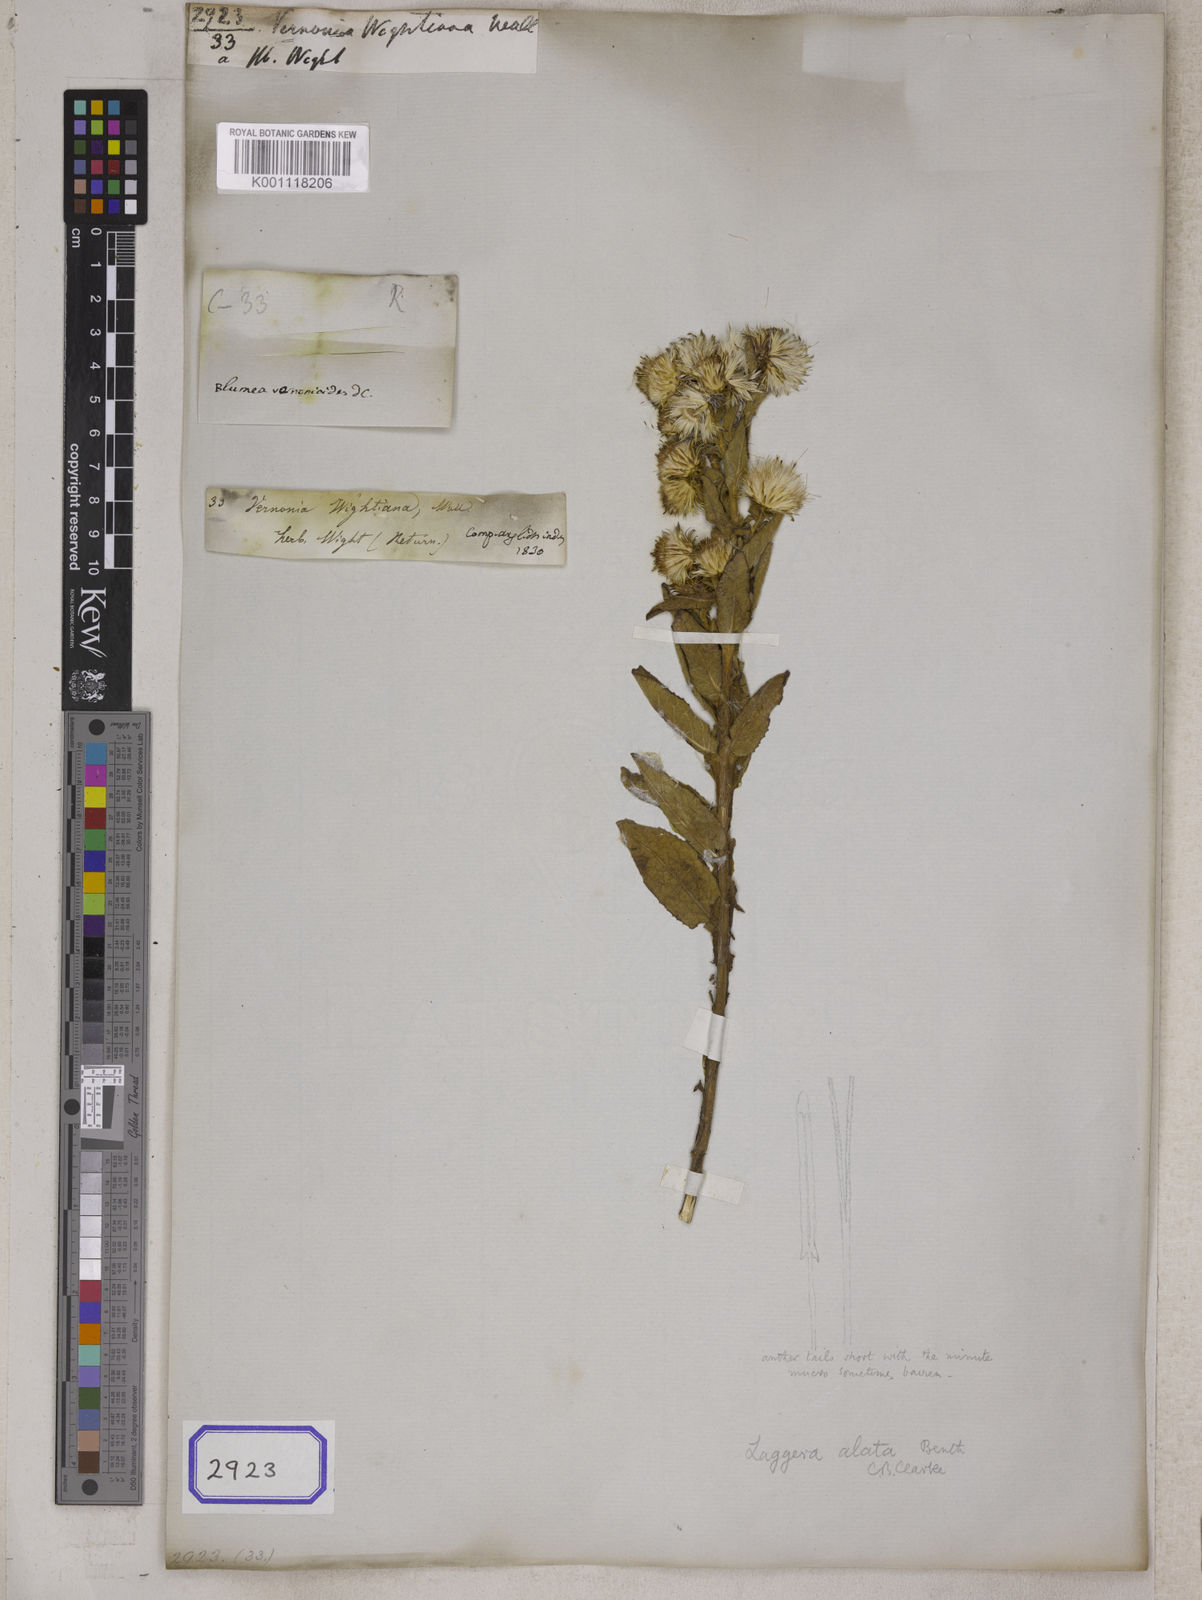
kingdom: Plantae
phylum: Tracheophyta
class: Magnoliopsida
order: Asterales
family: Asteraceae
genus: Vernonia
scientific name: Vernonia
